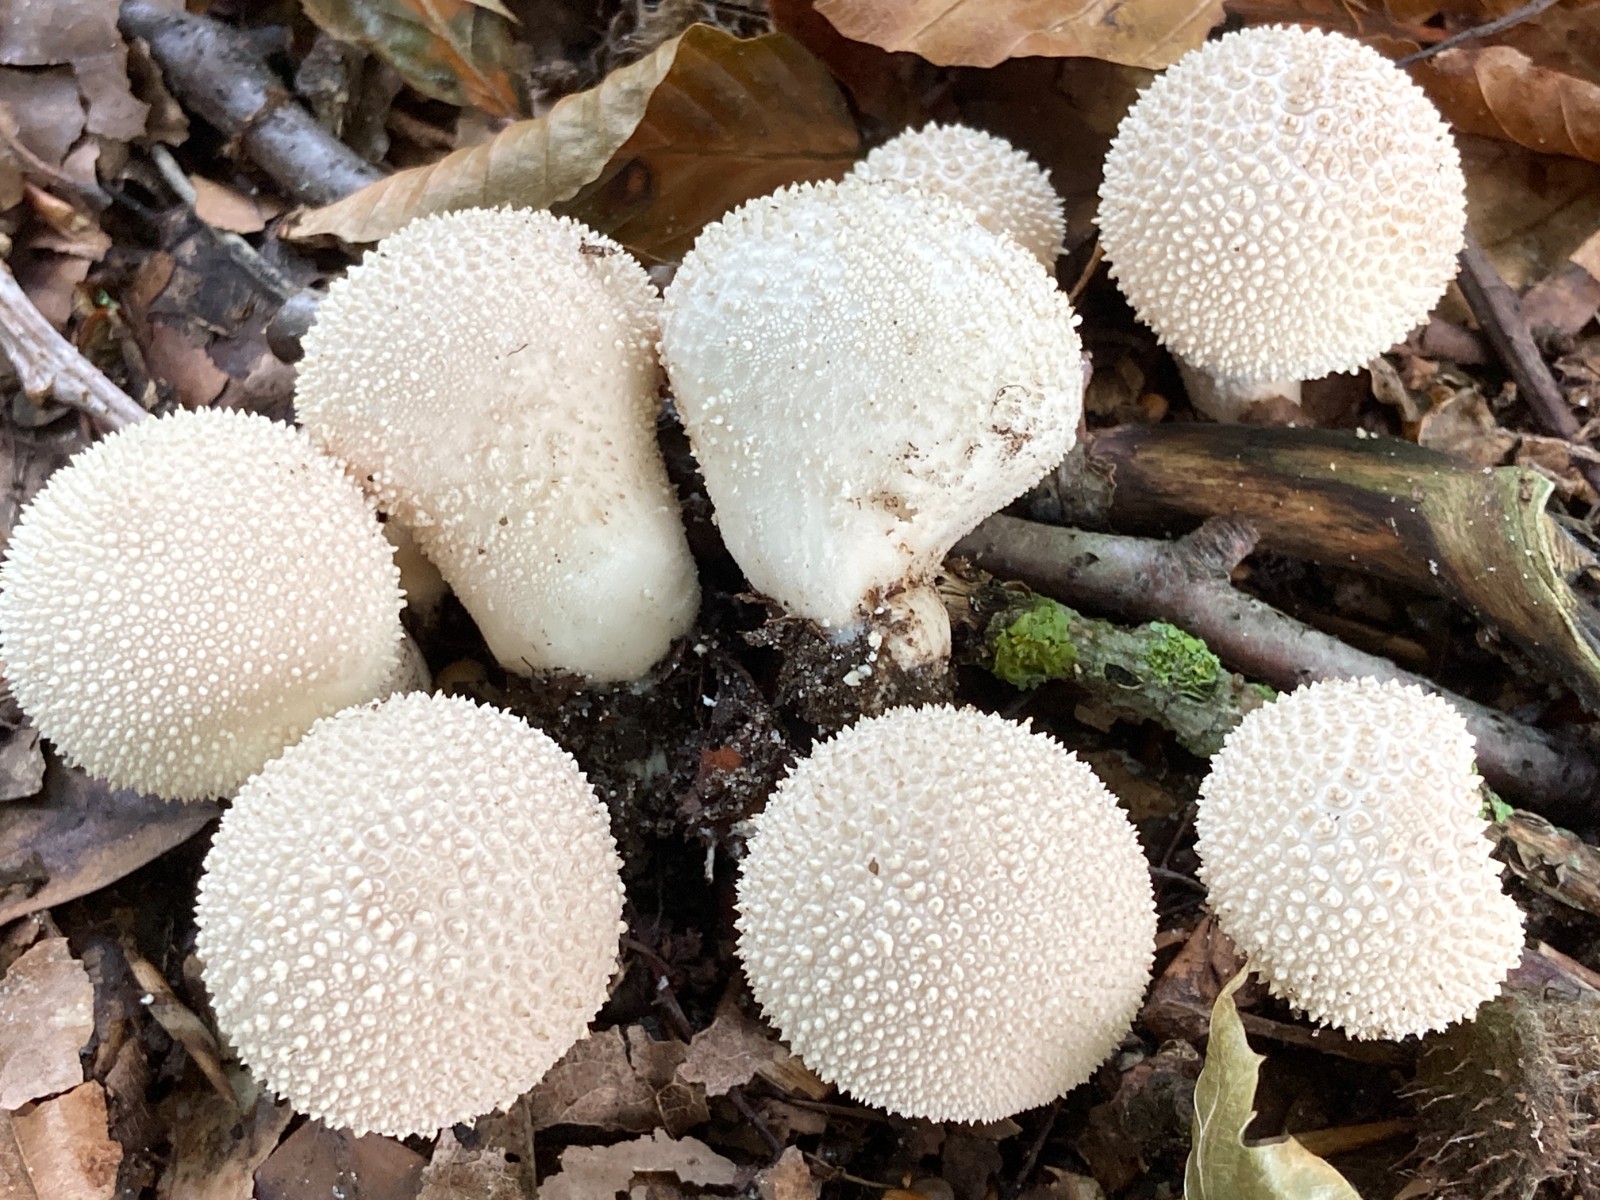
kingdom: Fungi
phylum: Basidiomycota
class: Agaricomycetes
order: Agaricales
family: Lycoperdaceae
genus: Lycoperdon
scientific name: Lycoperdon perlatum
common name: krystal-støvbold
